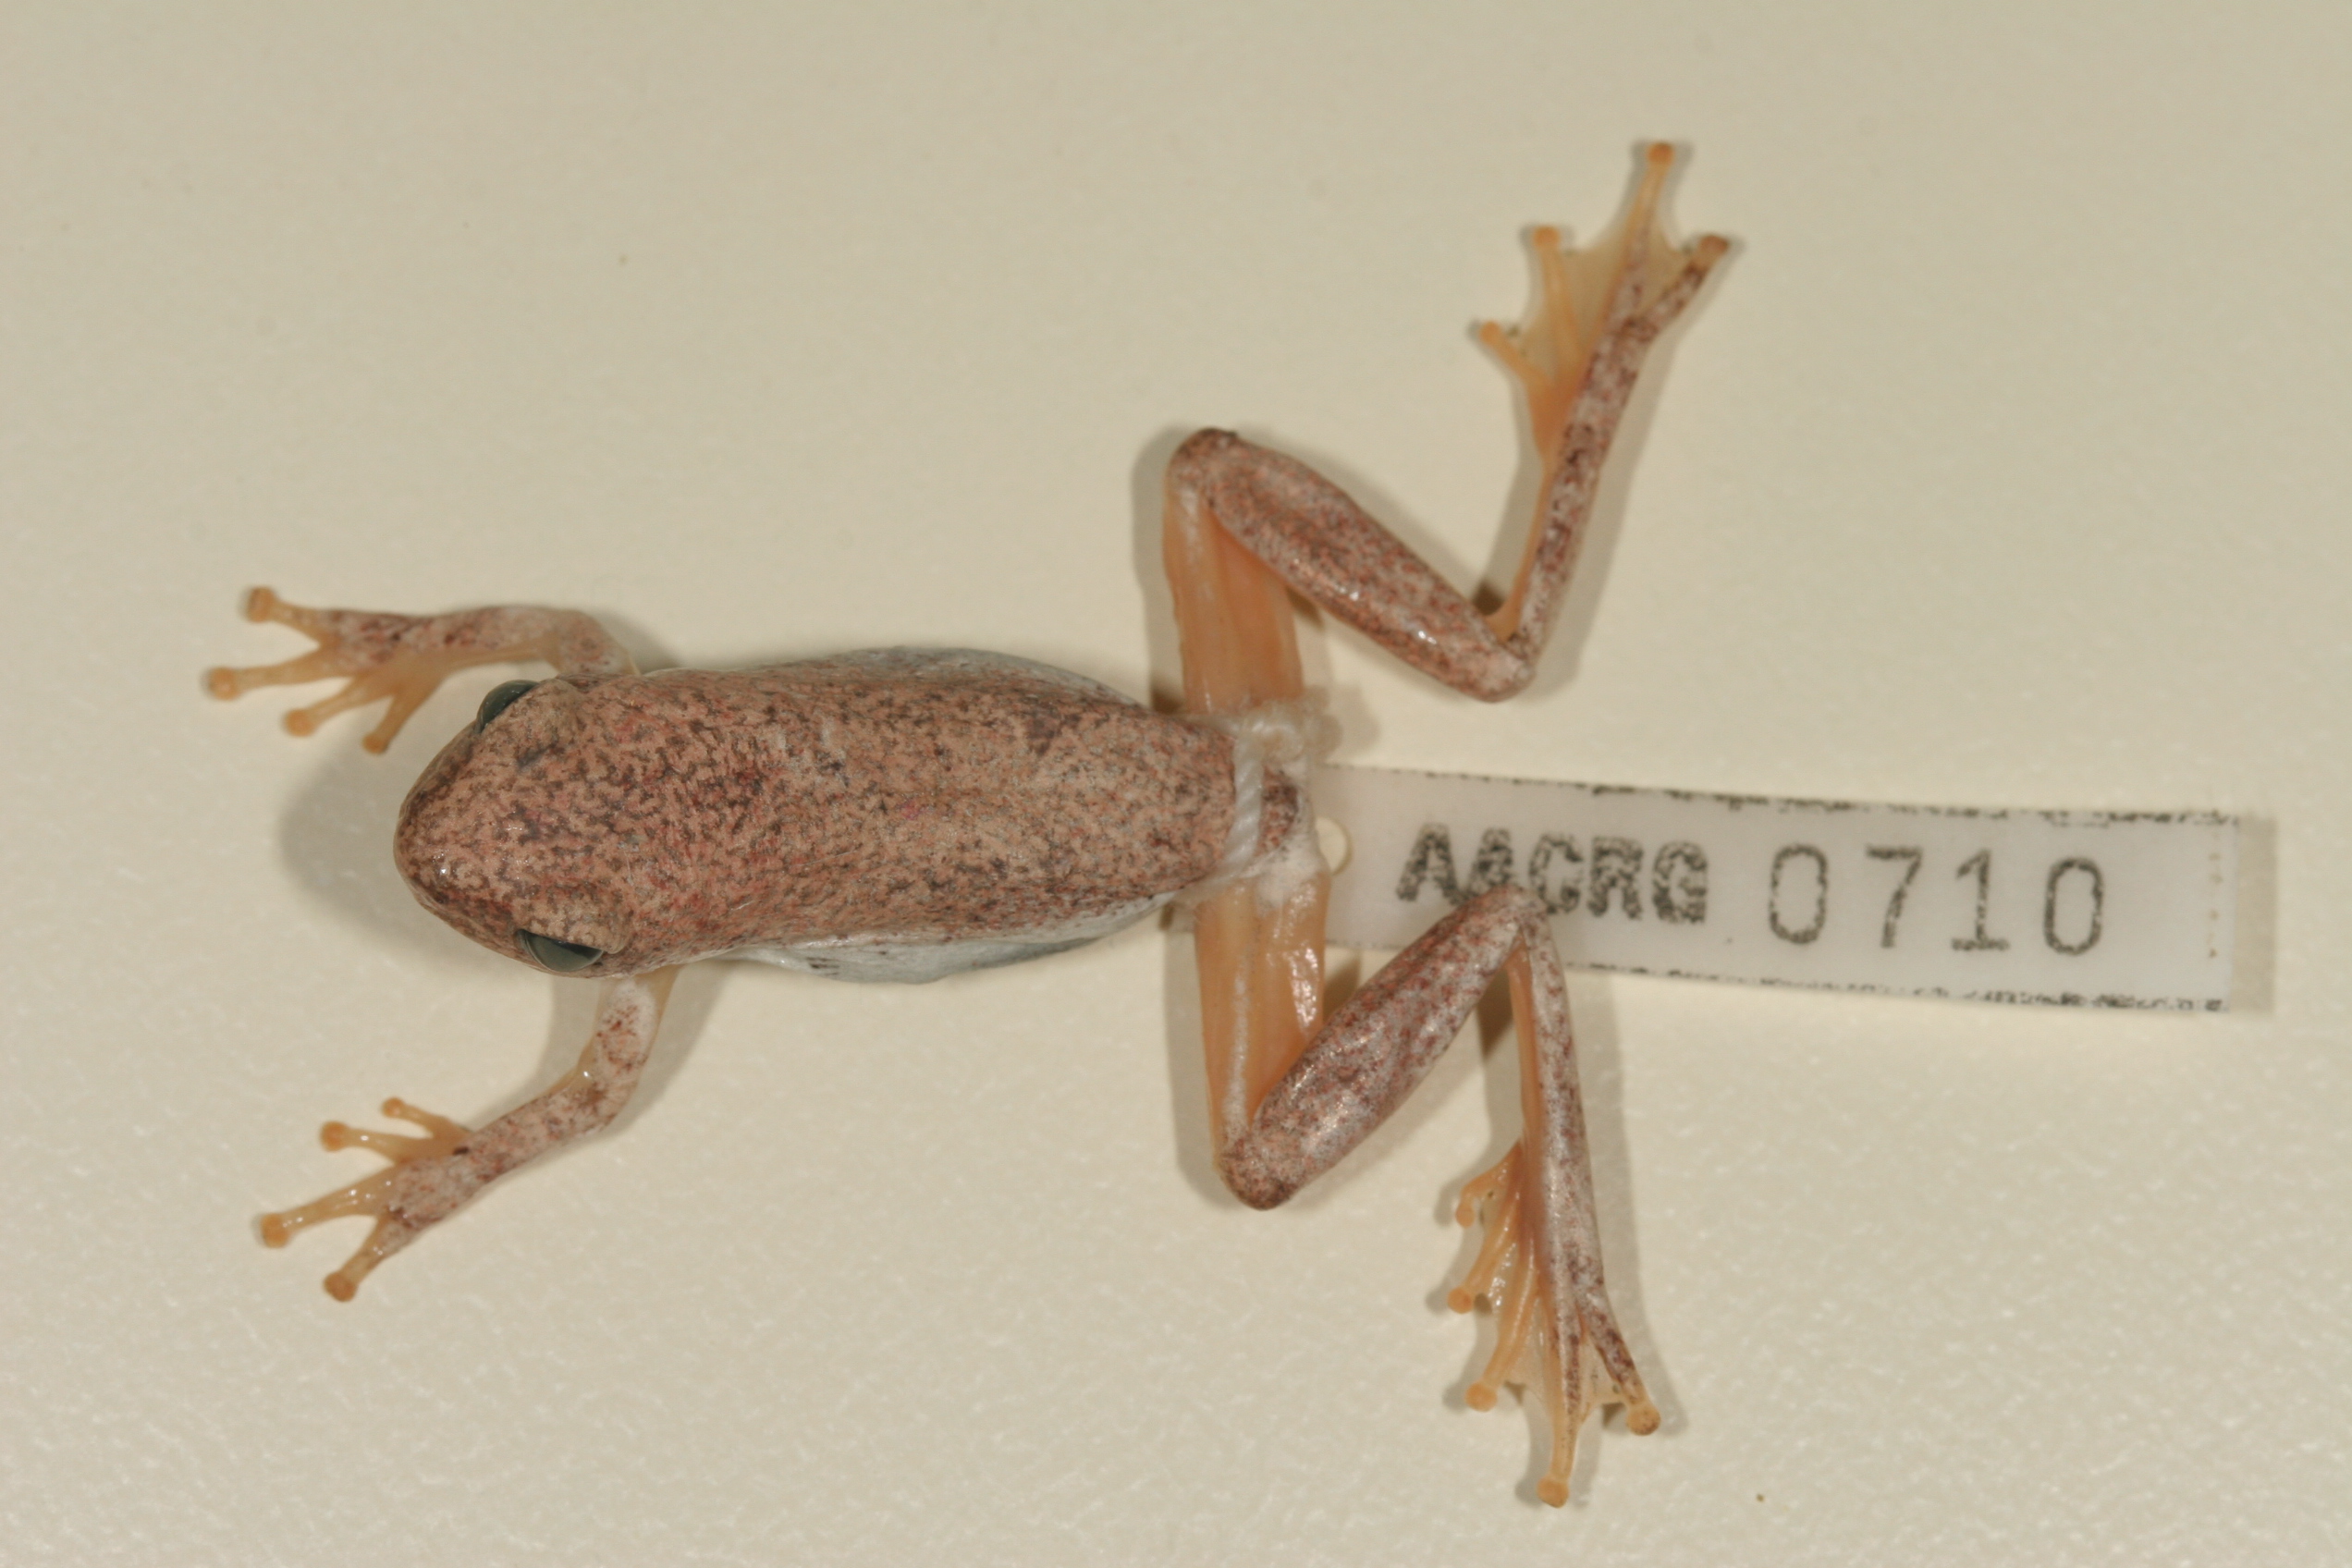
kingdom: Animalia
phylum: Chordata
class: Amphibia
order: Anura
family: Hyperoliidae
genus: Hyperolius
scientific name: Hyperolius parallelus
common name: Angolan reed frog
